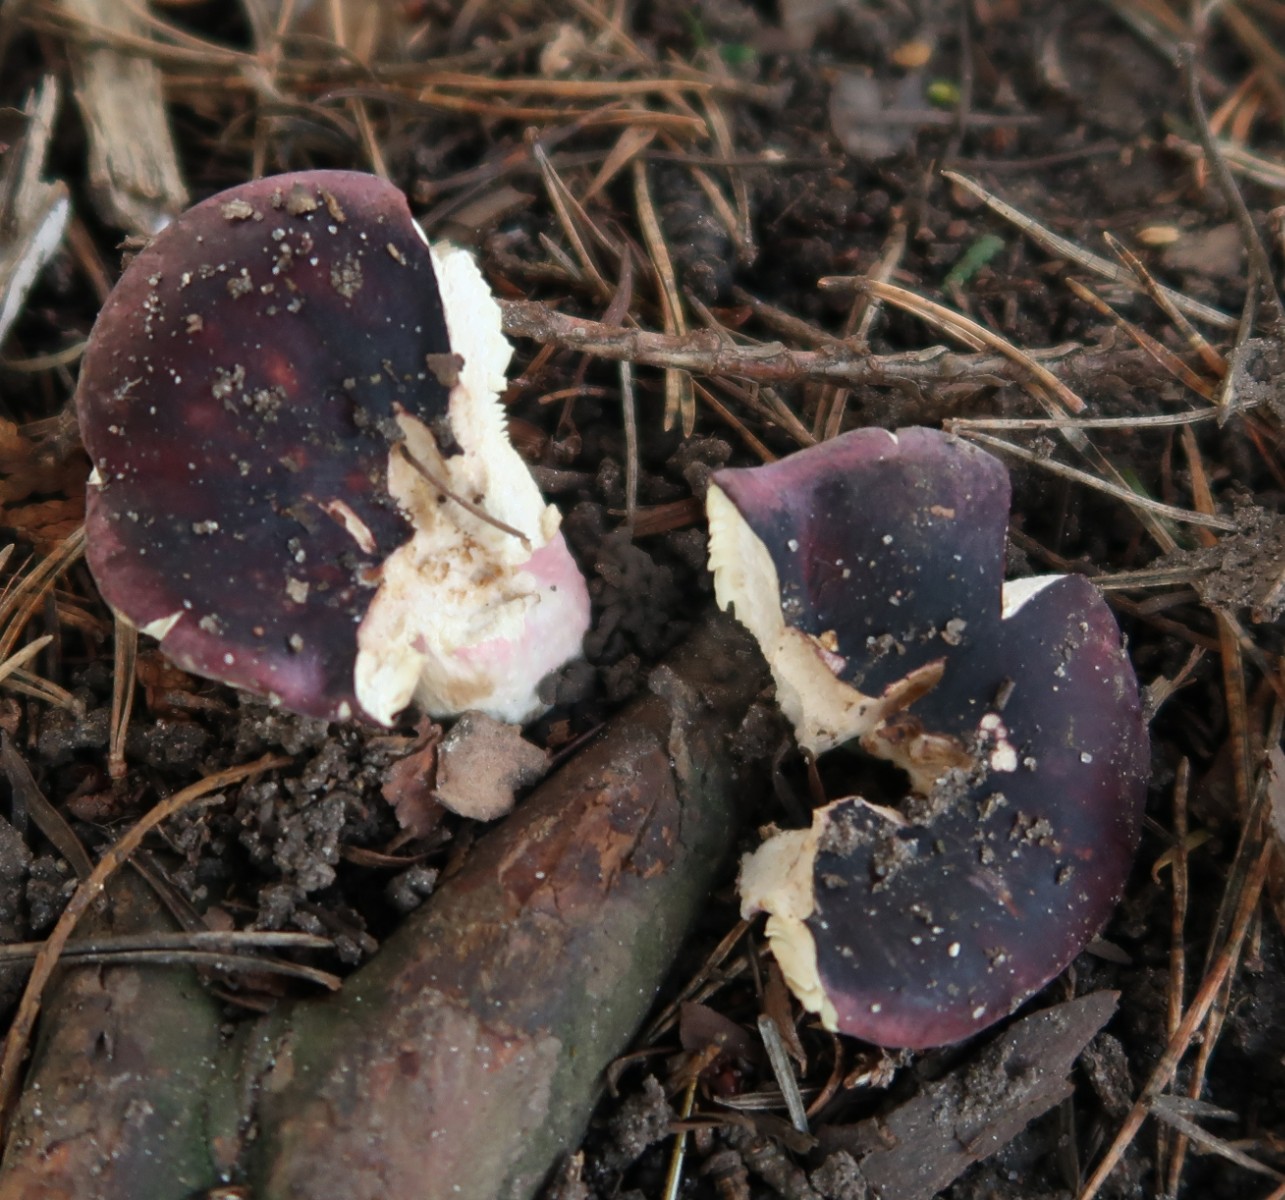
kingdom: Fungi
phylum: Basidiomycota
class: Agaricomycetes
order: Russulales
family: Russulaceae
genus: Russula
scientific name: Russula xerampelina
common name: hummer-skørhat
